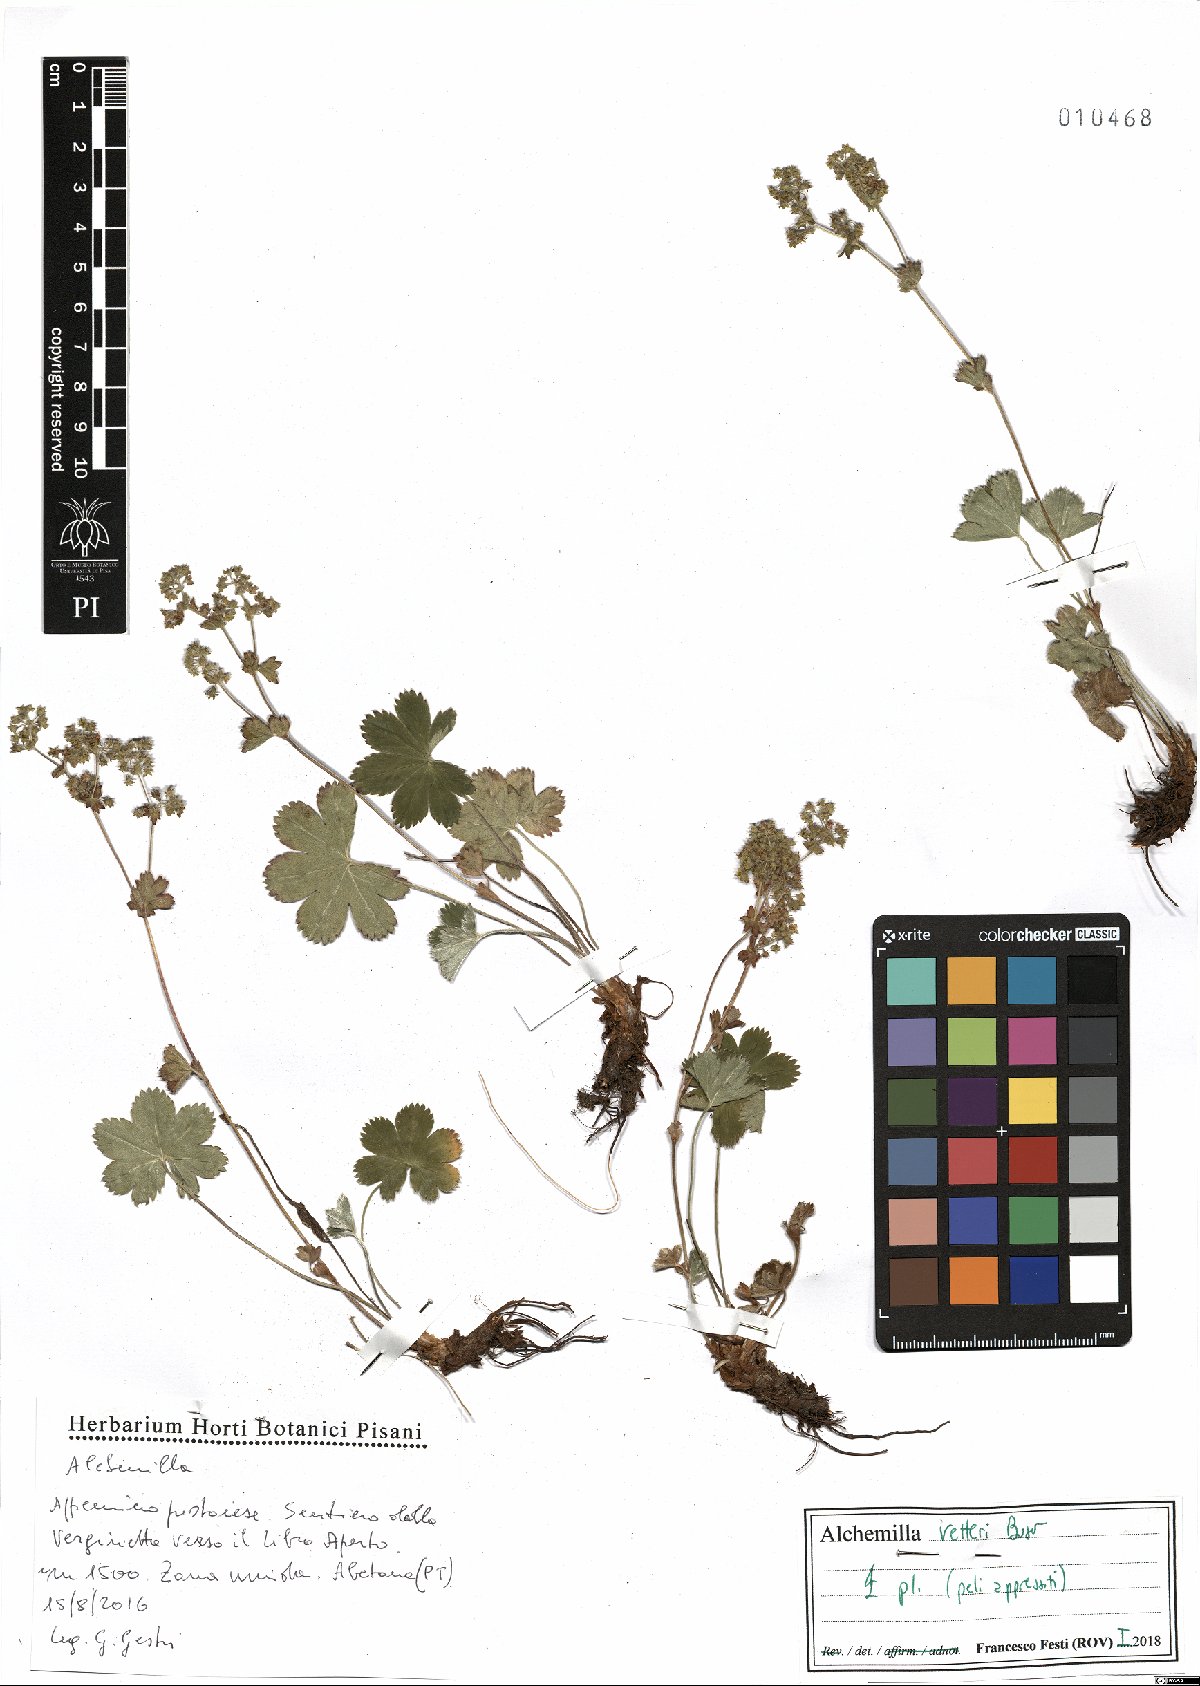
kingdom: Plantae
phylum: Tracheophyta
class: Magnoliopsida
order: Rosales
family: Rosaceae
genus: Alchemilla
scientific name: Alchemilla vetteri
